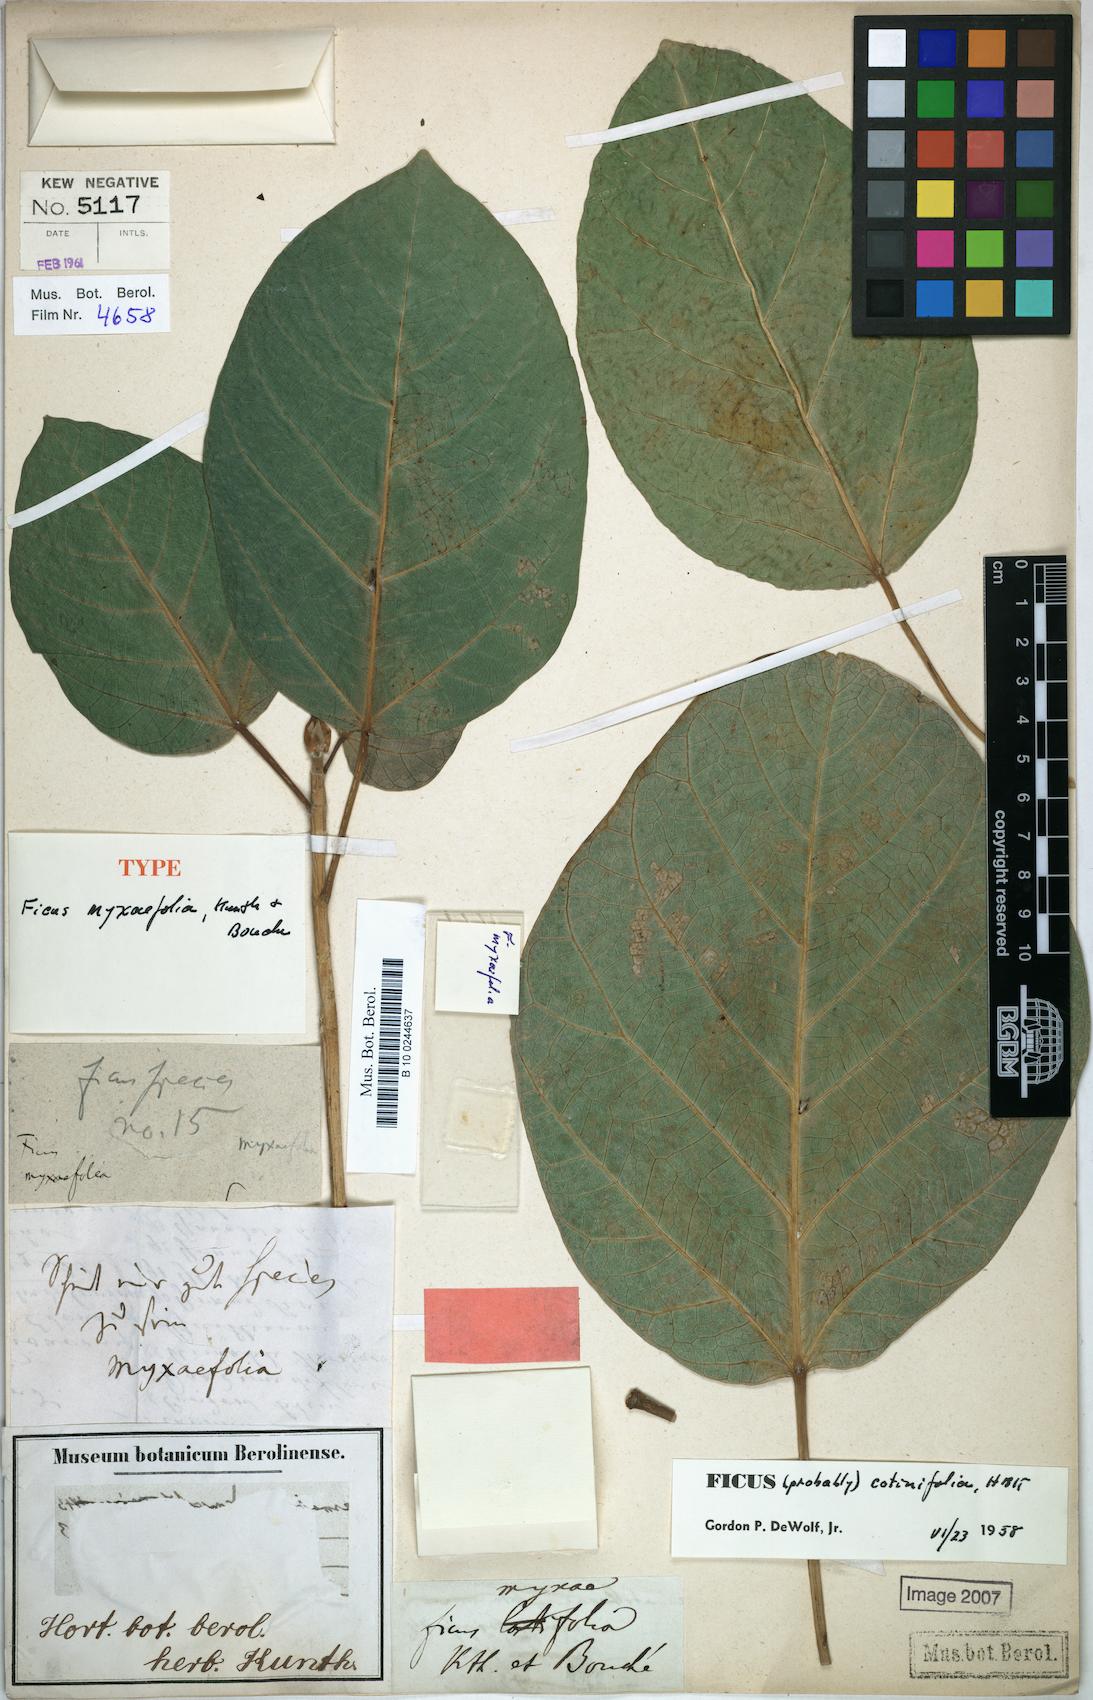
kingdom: Plantae
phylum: Tracheophyta
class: Magnoliopsida
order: Rosales
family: Moraceae
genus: Ficus
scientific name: Ficus cotinifolia
